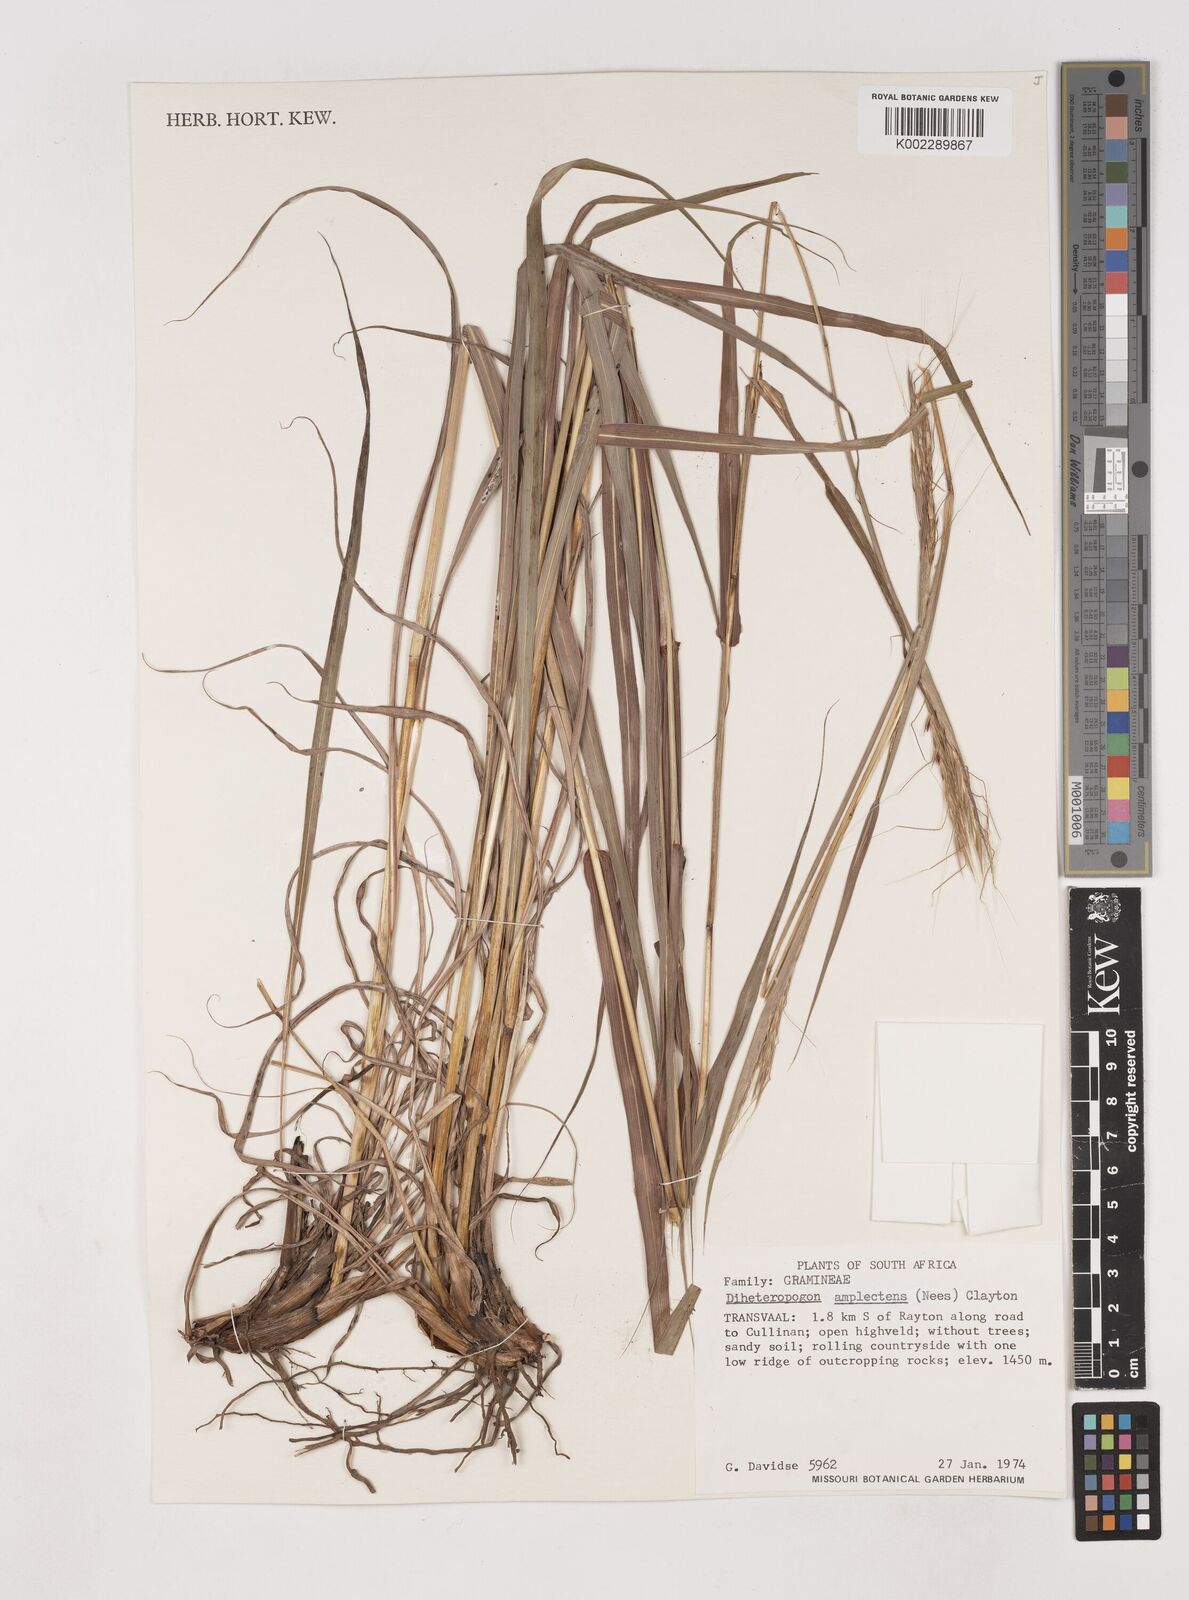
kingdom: Plantae
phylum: Tracheophyta
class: Liliopsida
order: Poales
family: Poaceae
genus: Diheteropogon
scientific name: Diheteropogon amplectens
